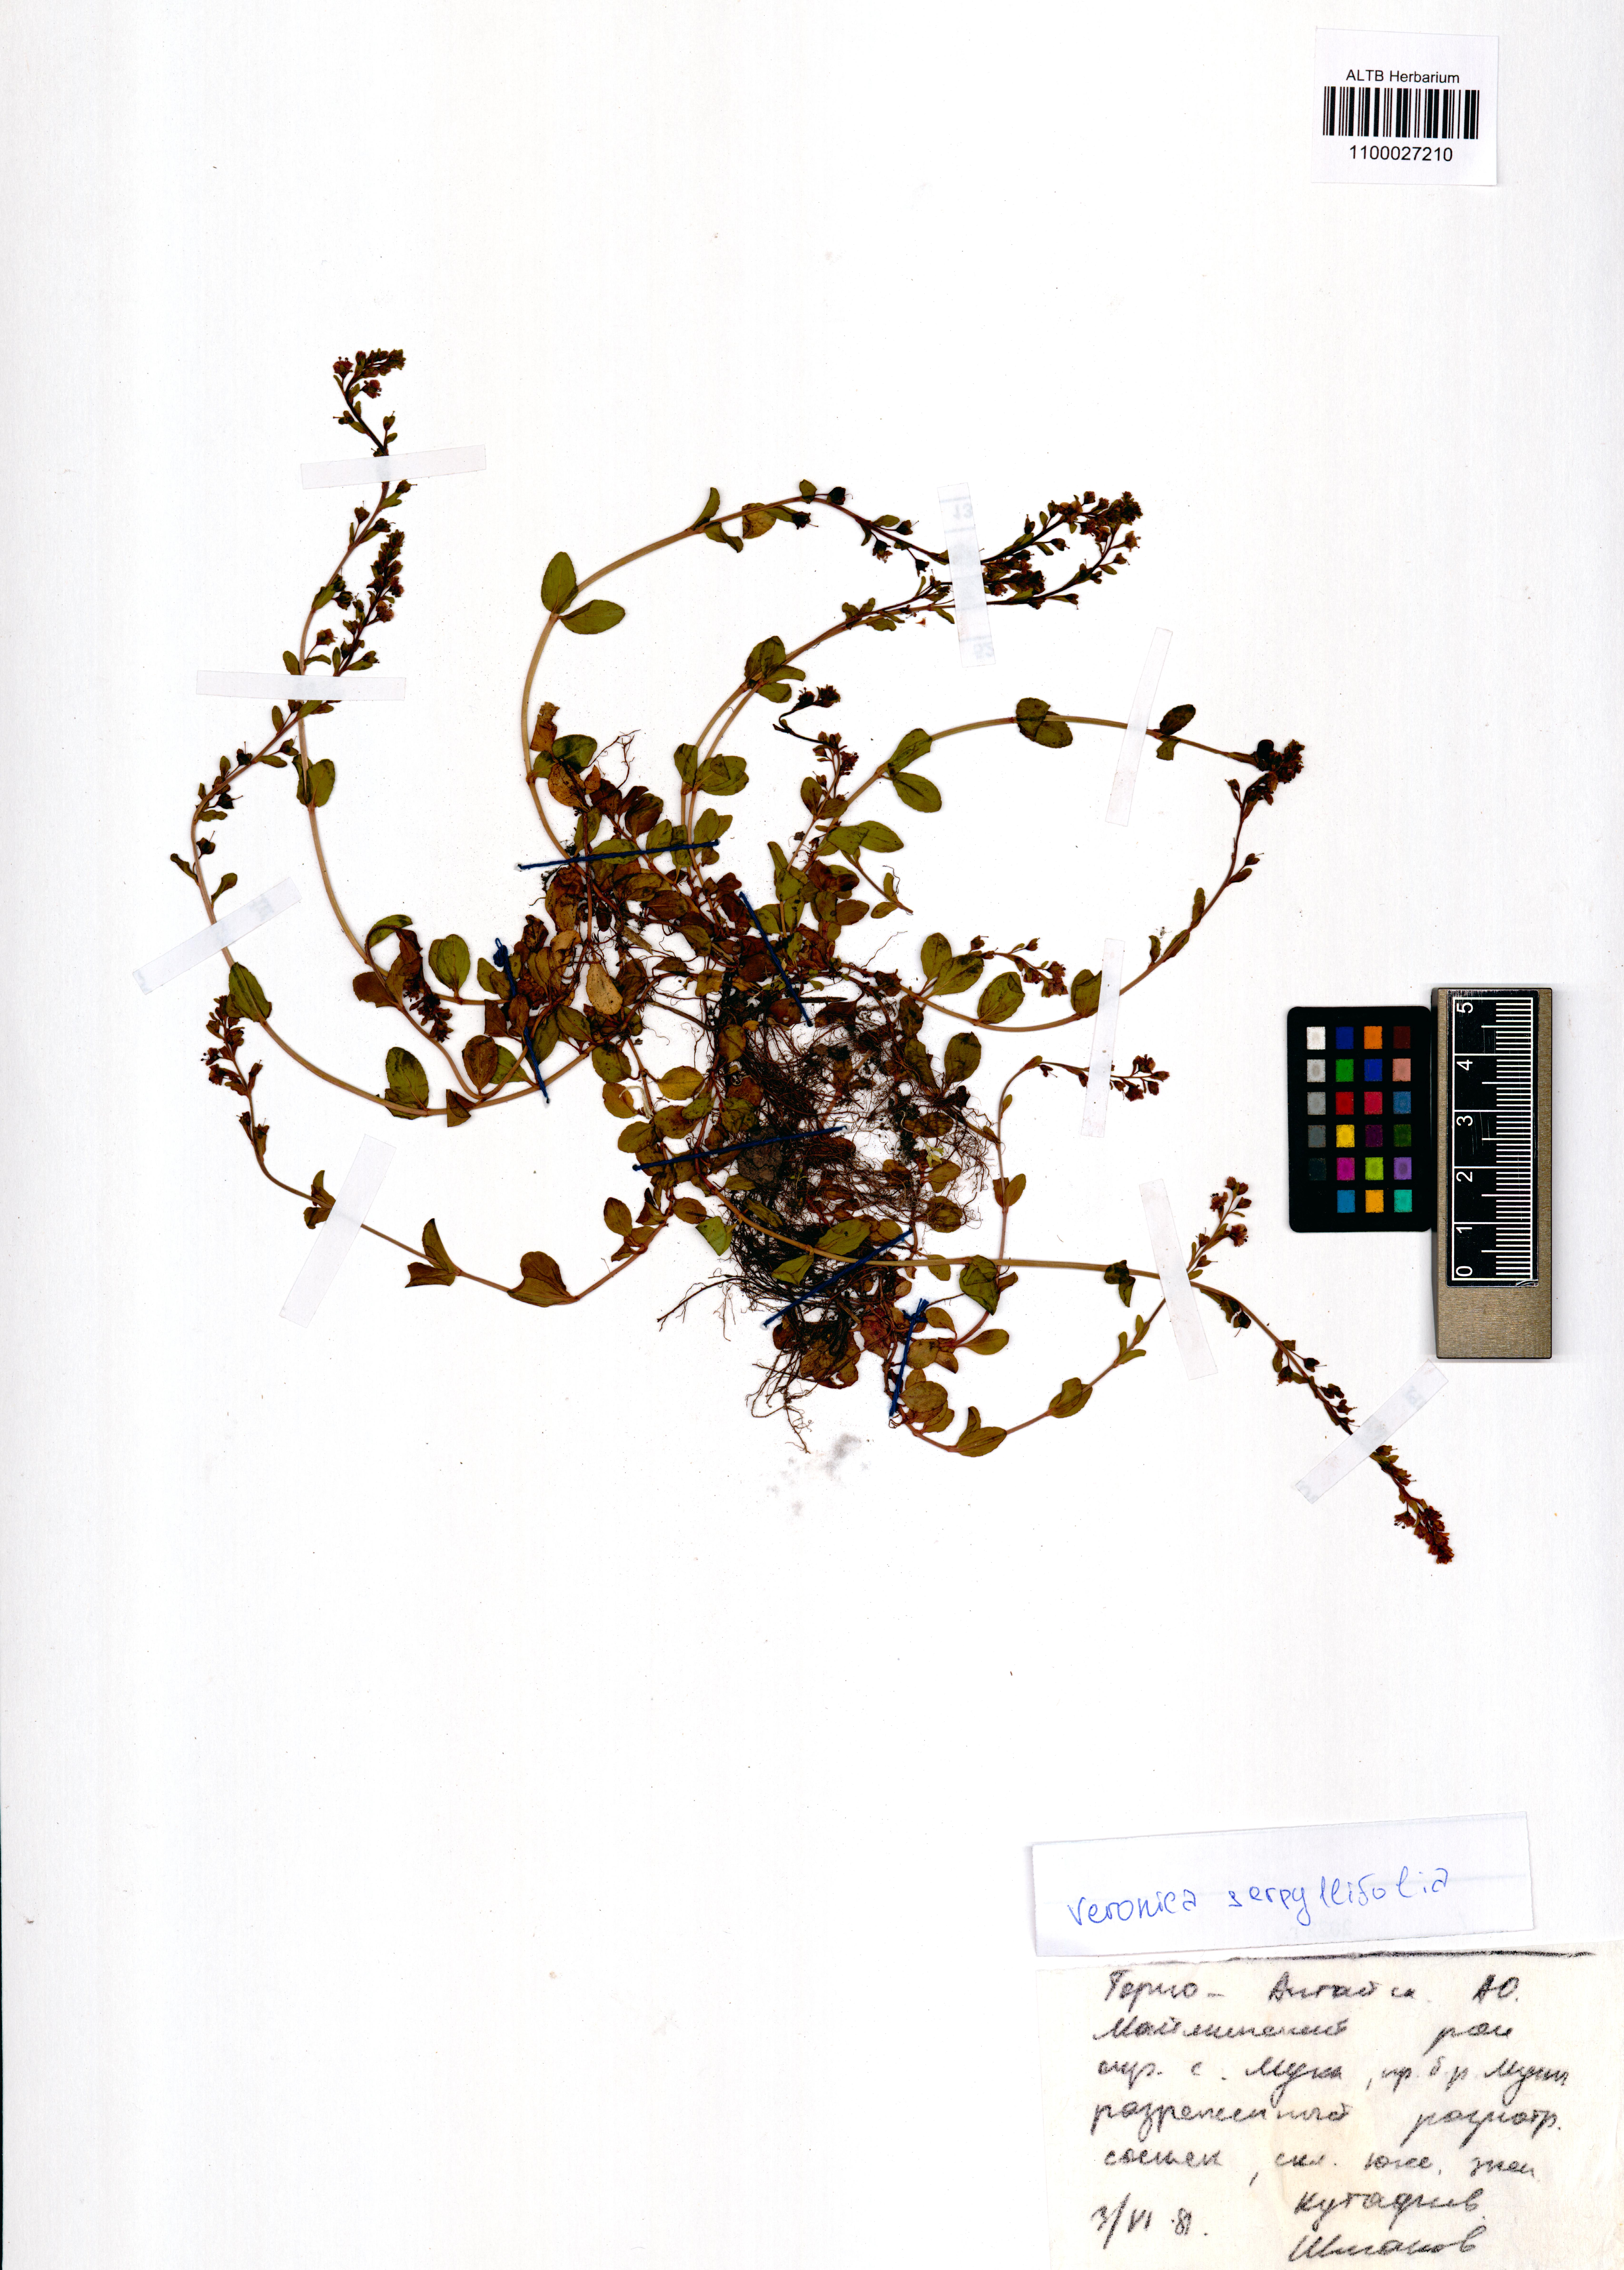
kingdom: Plantae
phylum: Tracheophyta
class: Magnoliopsida
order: Lamiales
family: Plantaginaceae
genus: Veronica
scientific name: Veronica serpyllifolia
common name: Thyme-leaved speedwell
